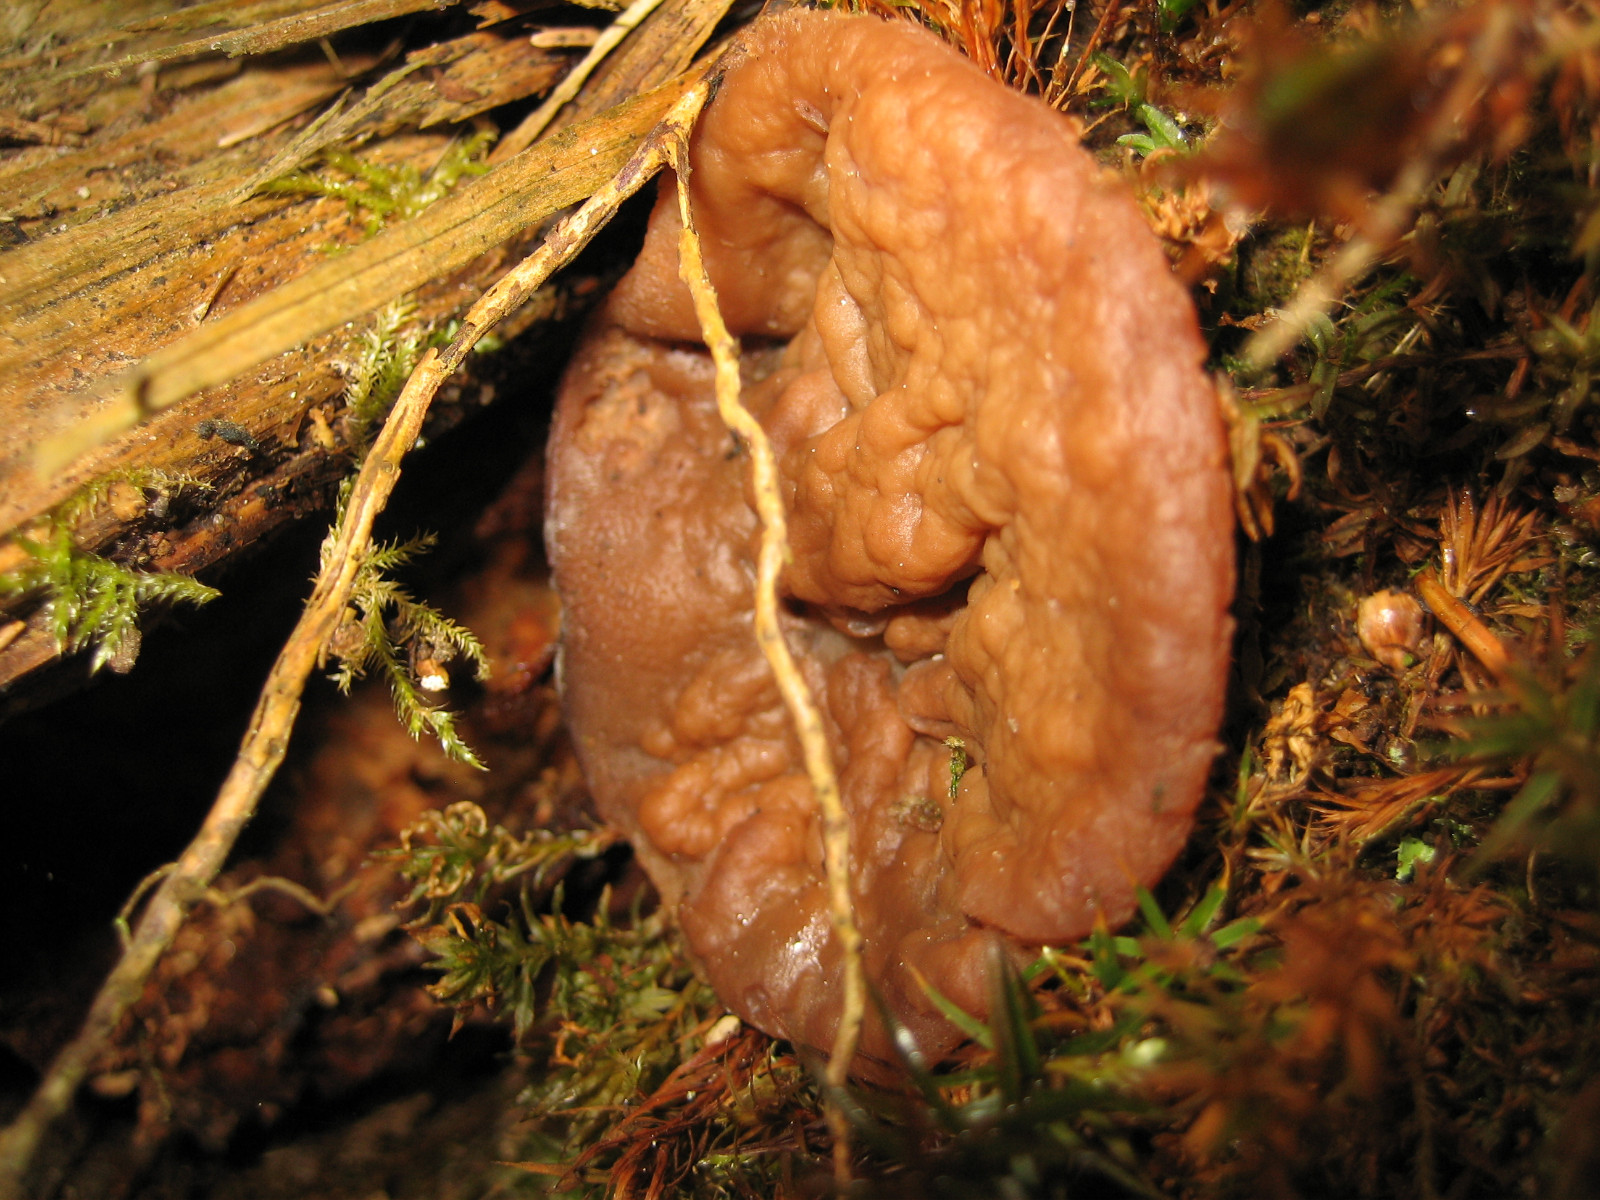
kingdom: Fungi
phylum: Ascomycota
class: Pezizomycetes
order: Pezizales
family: Discinaceae
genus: Discina
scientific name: Discina ancilis
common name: udbredt stenmorkel
